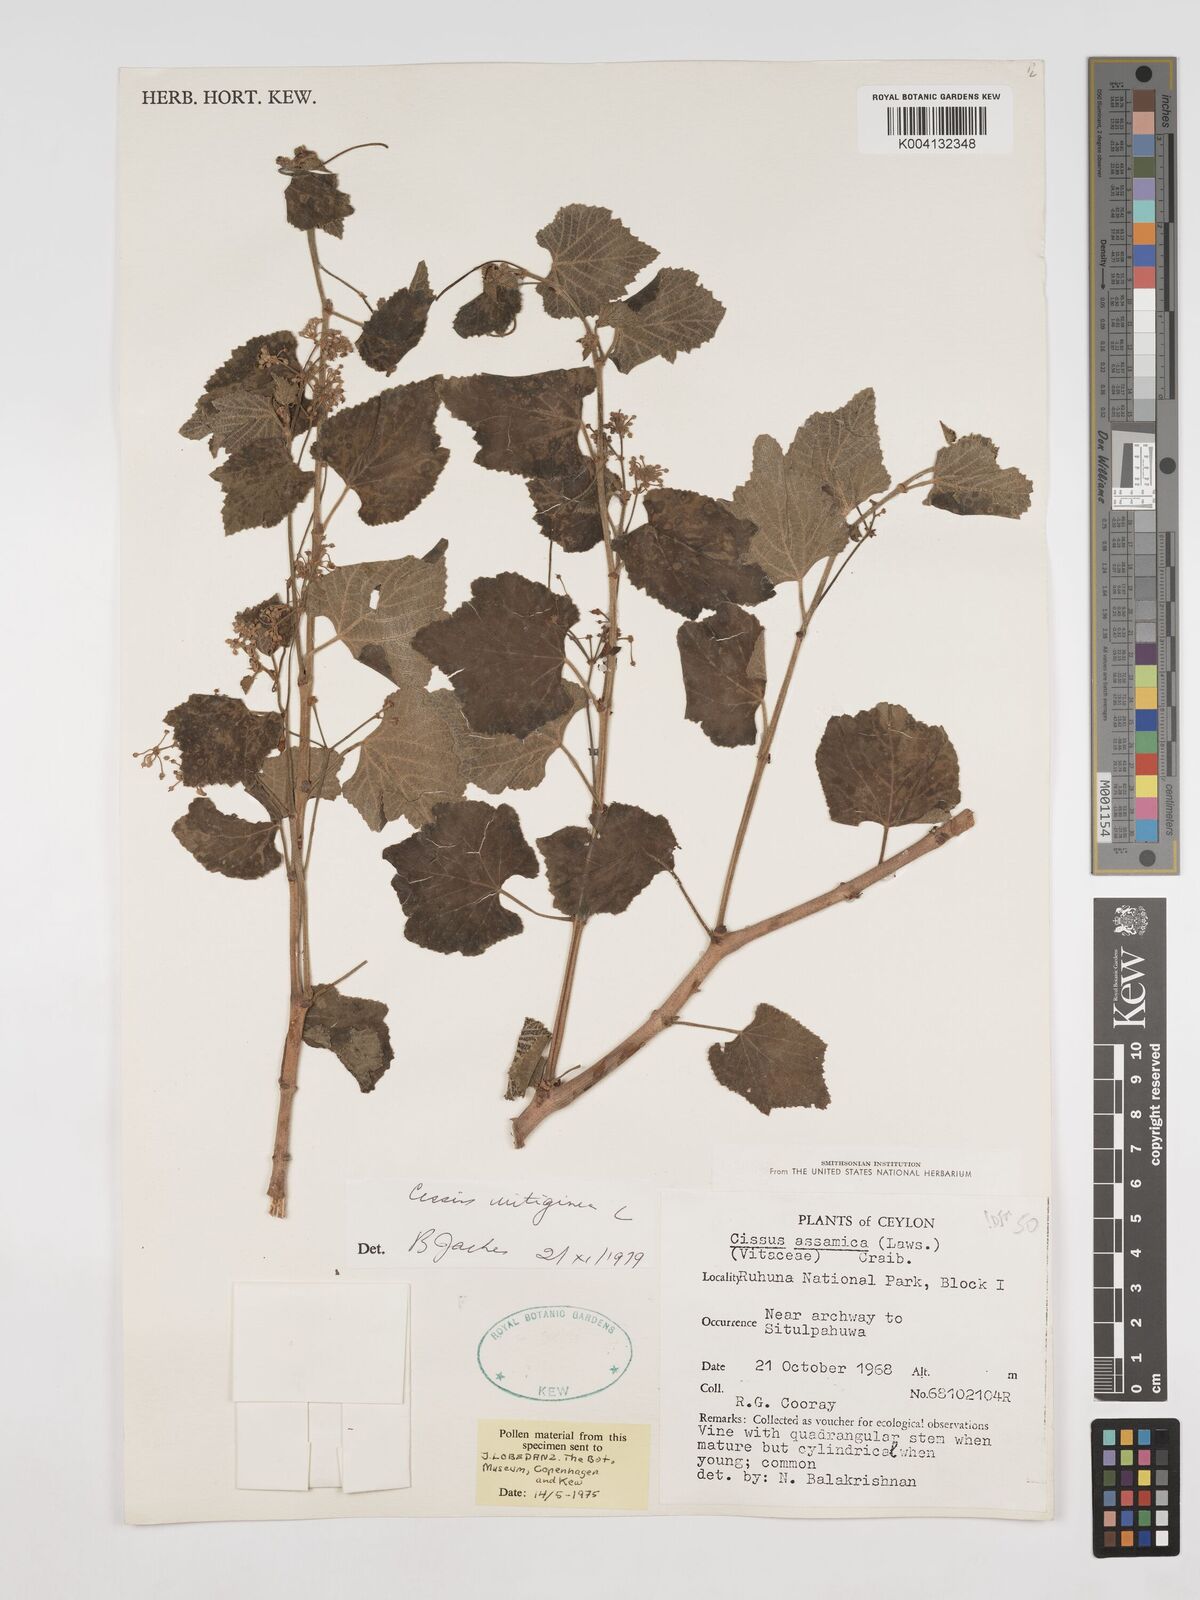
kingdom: Plantae
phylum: Tracheophyta
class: Magnoliopsida
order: Vitales
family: Vitaceae
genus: Cissus
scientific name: Cissus vitiginea
